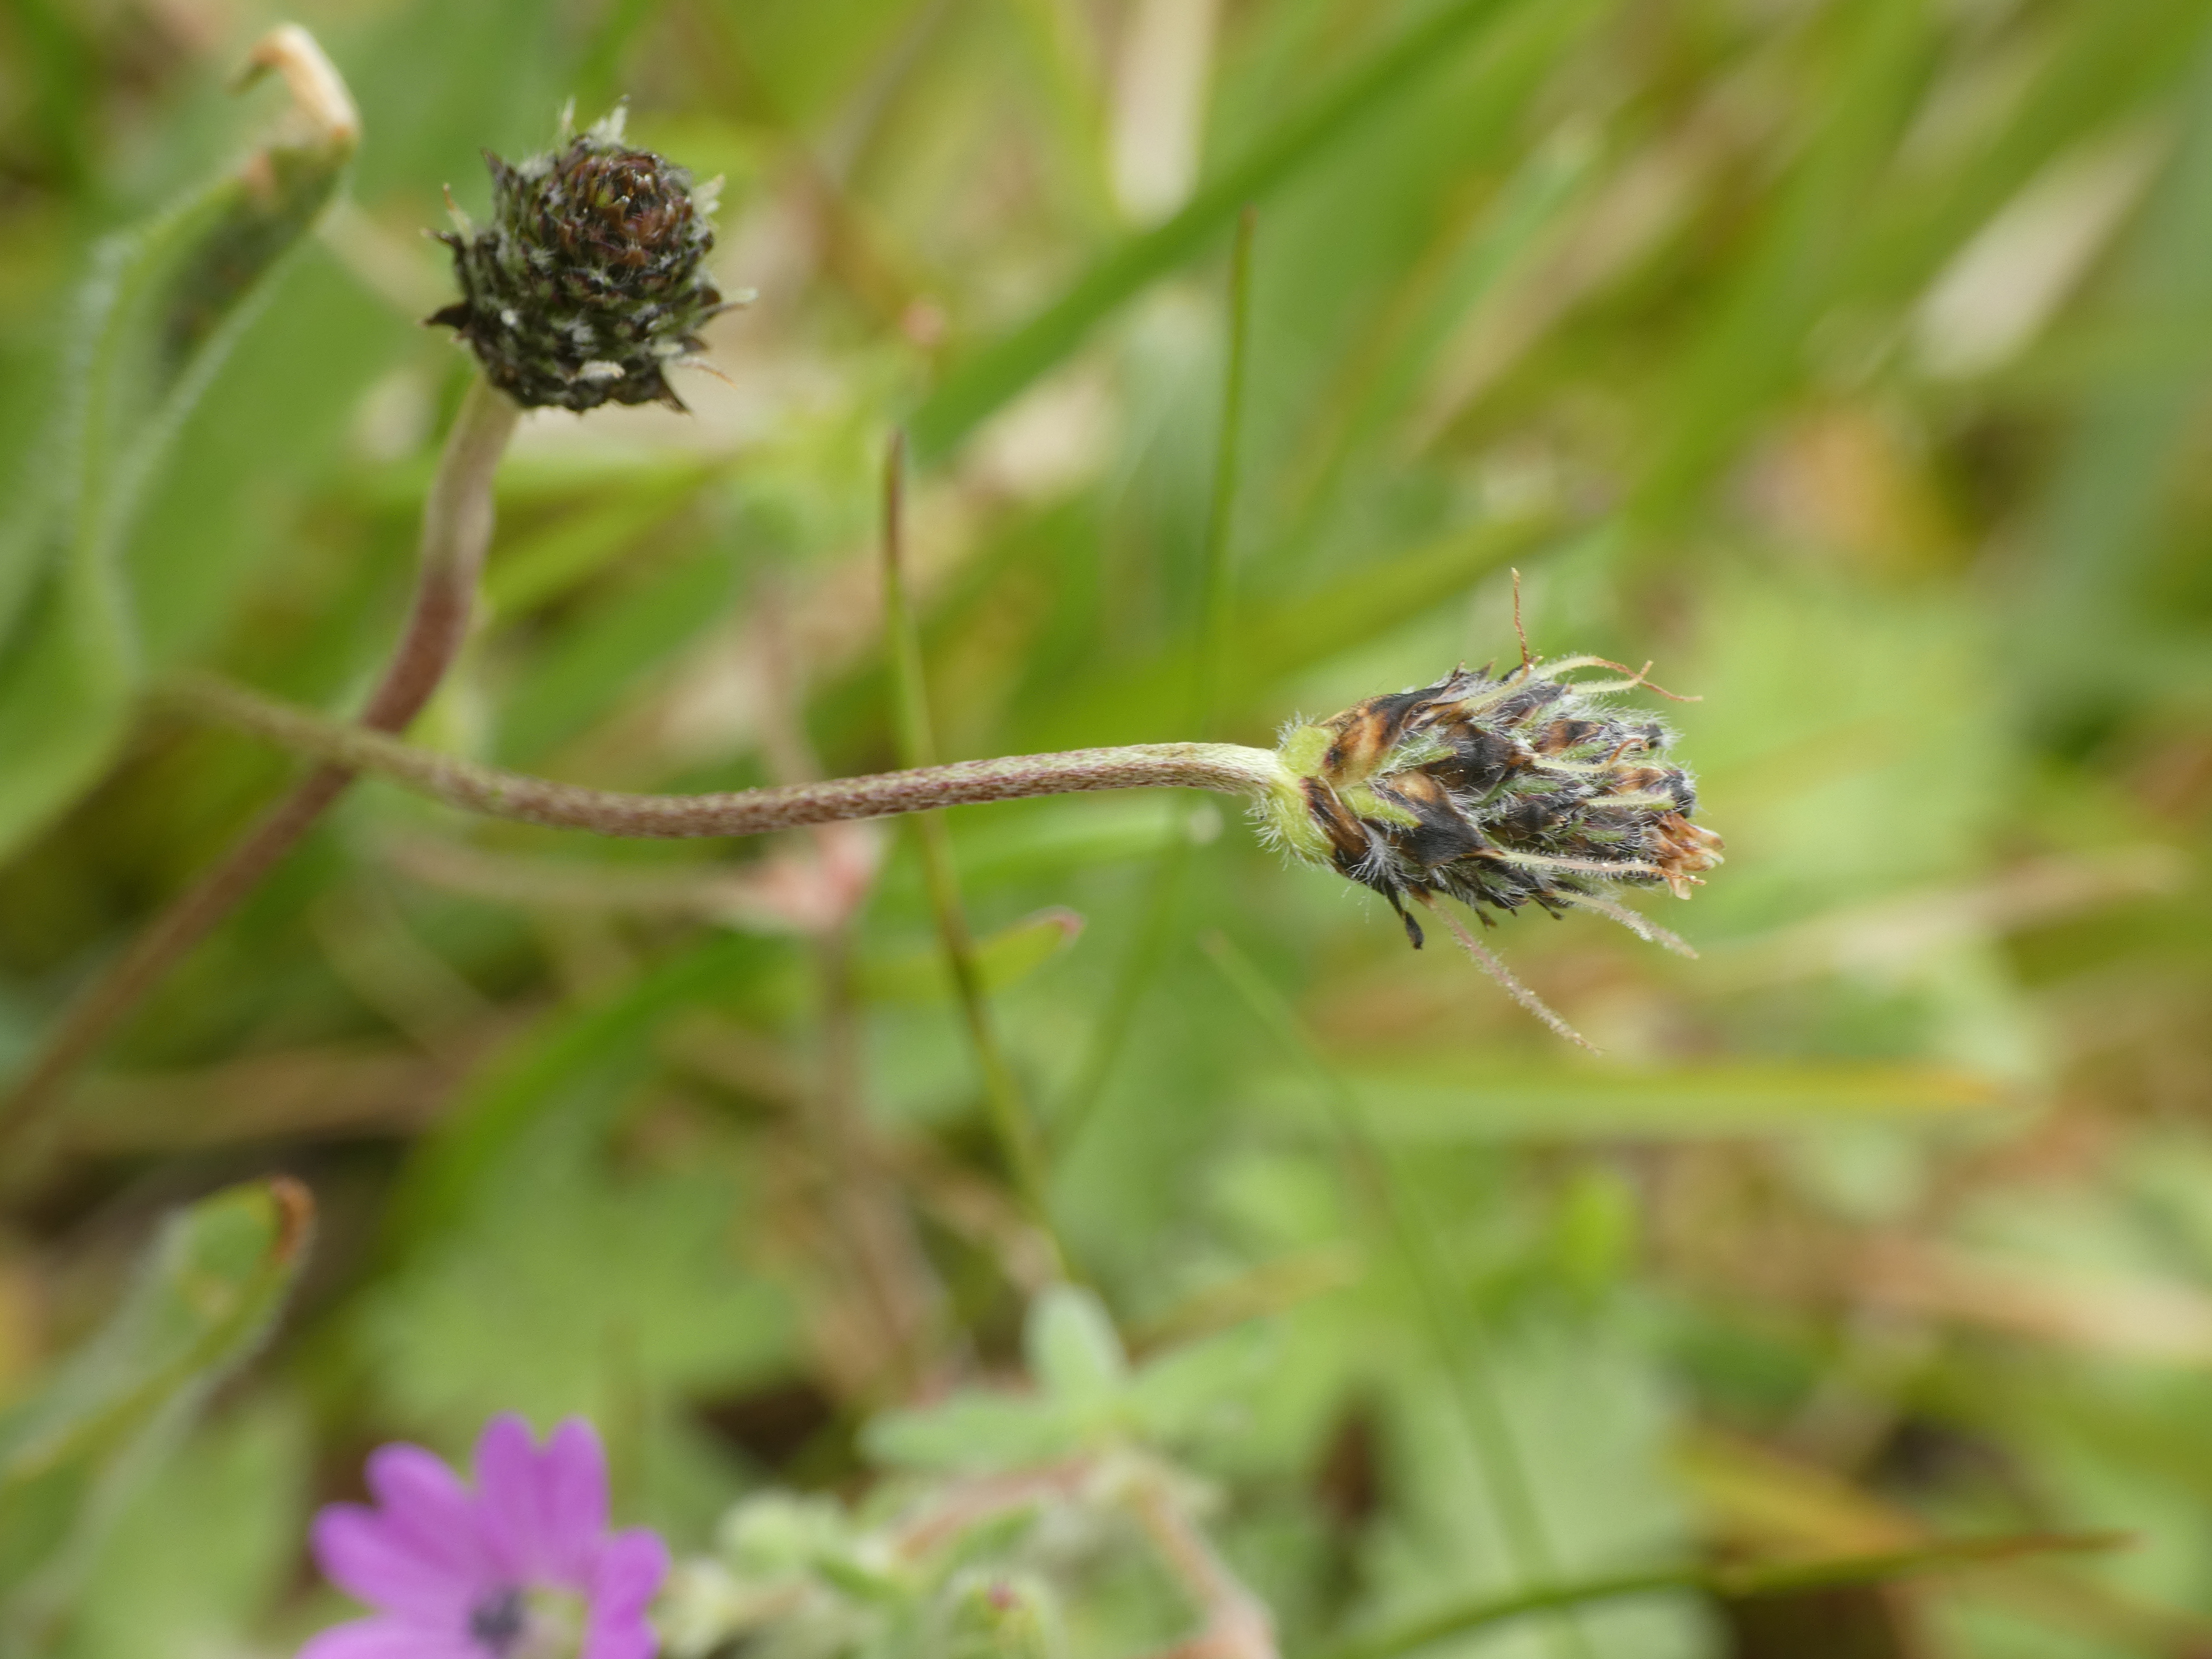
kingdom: Plantae
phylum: Tracheophyta
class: Magnoliopsida
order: Lamiales
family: Plantaginaceae
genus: Plantago
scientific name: Plantago lanceolata
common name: Lancet-vejbred
